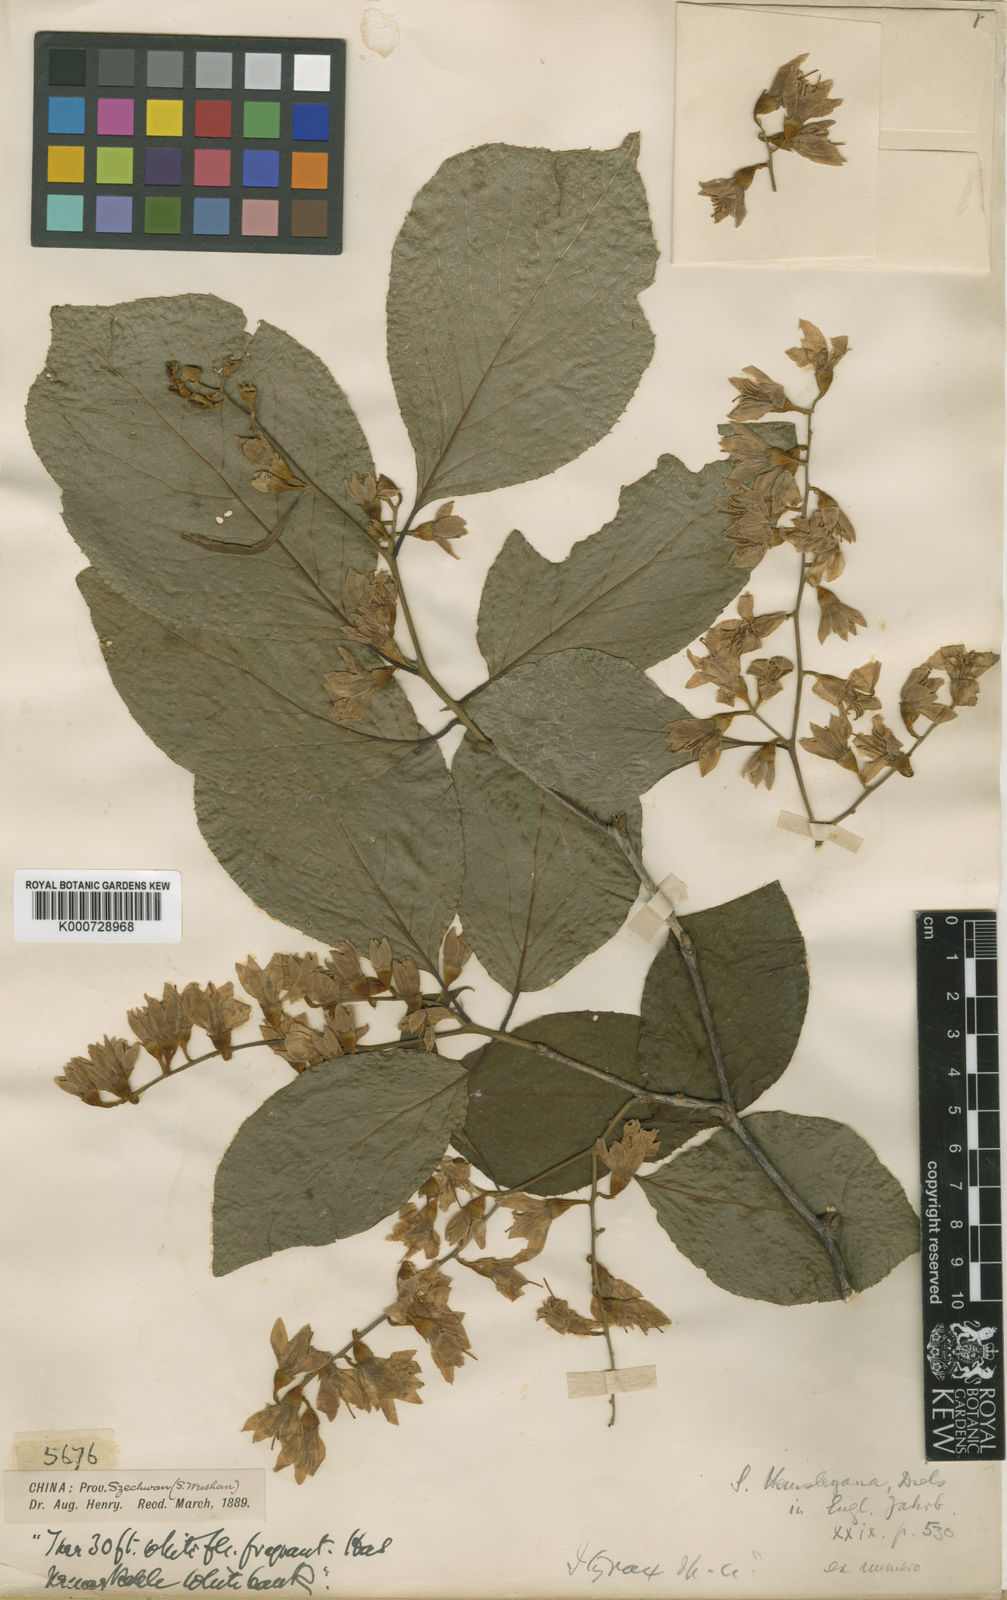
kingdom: Plantae
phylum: Tracheophyta
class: Magnoliopsida
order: Ericales
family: Styracaceae
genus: Styrax
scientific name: Styrax hemsleyanus
